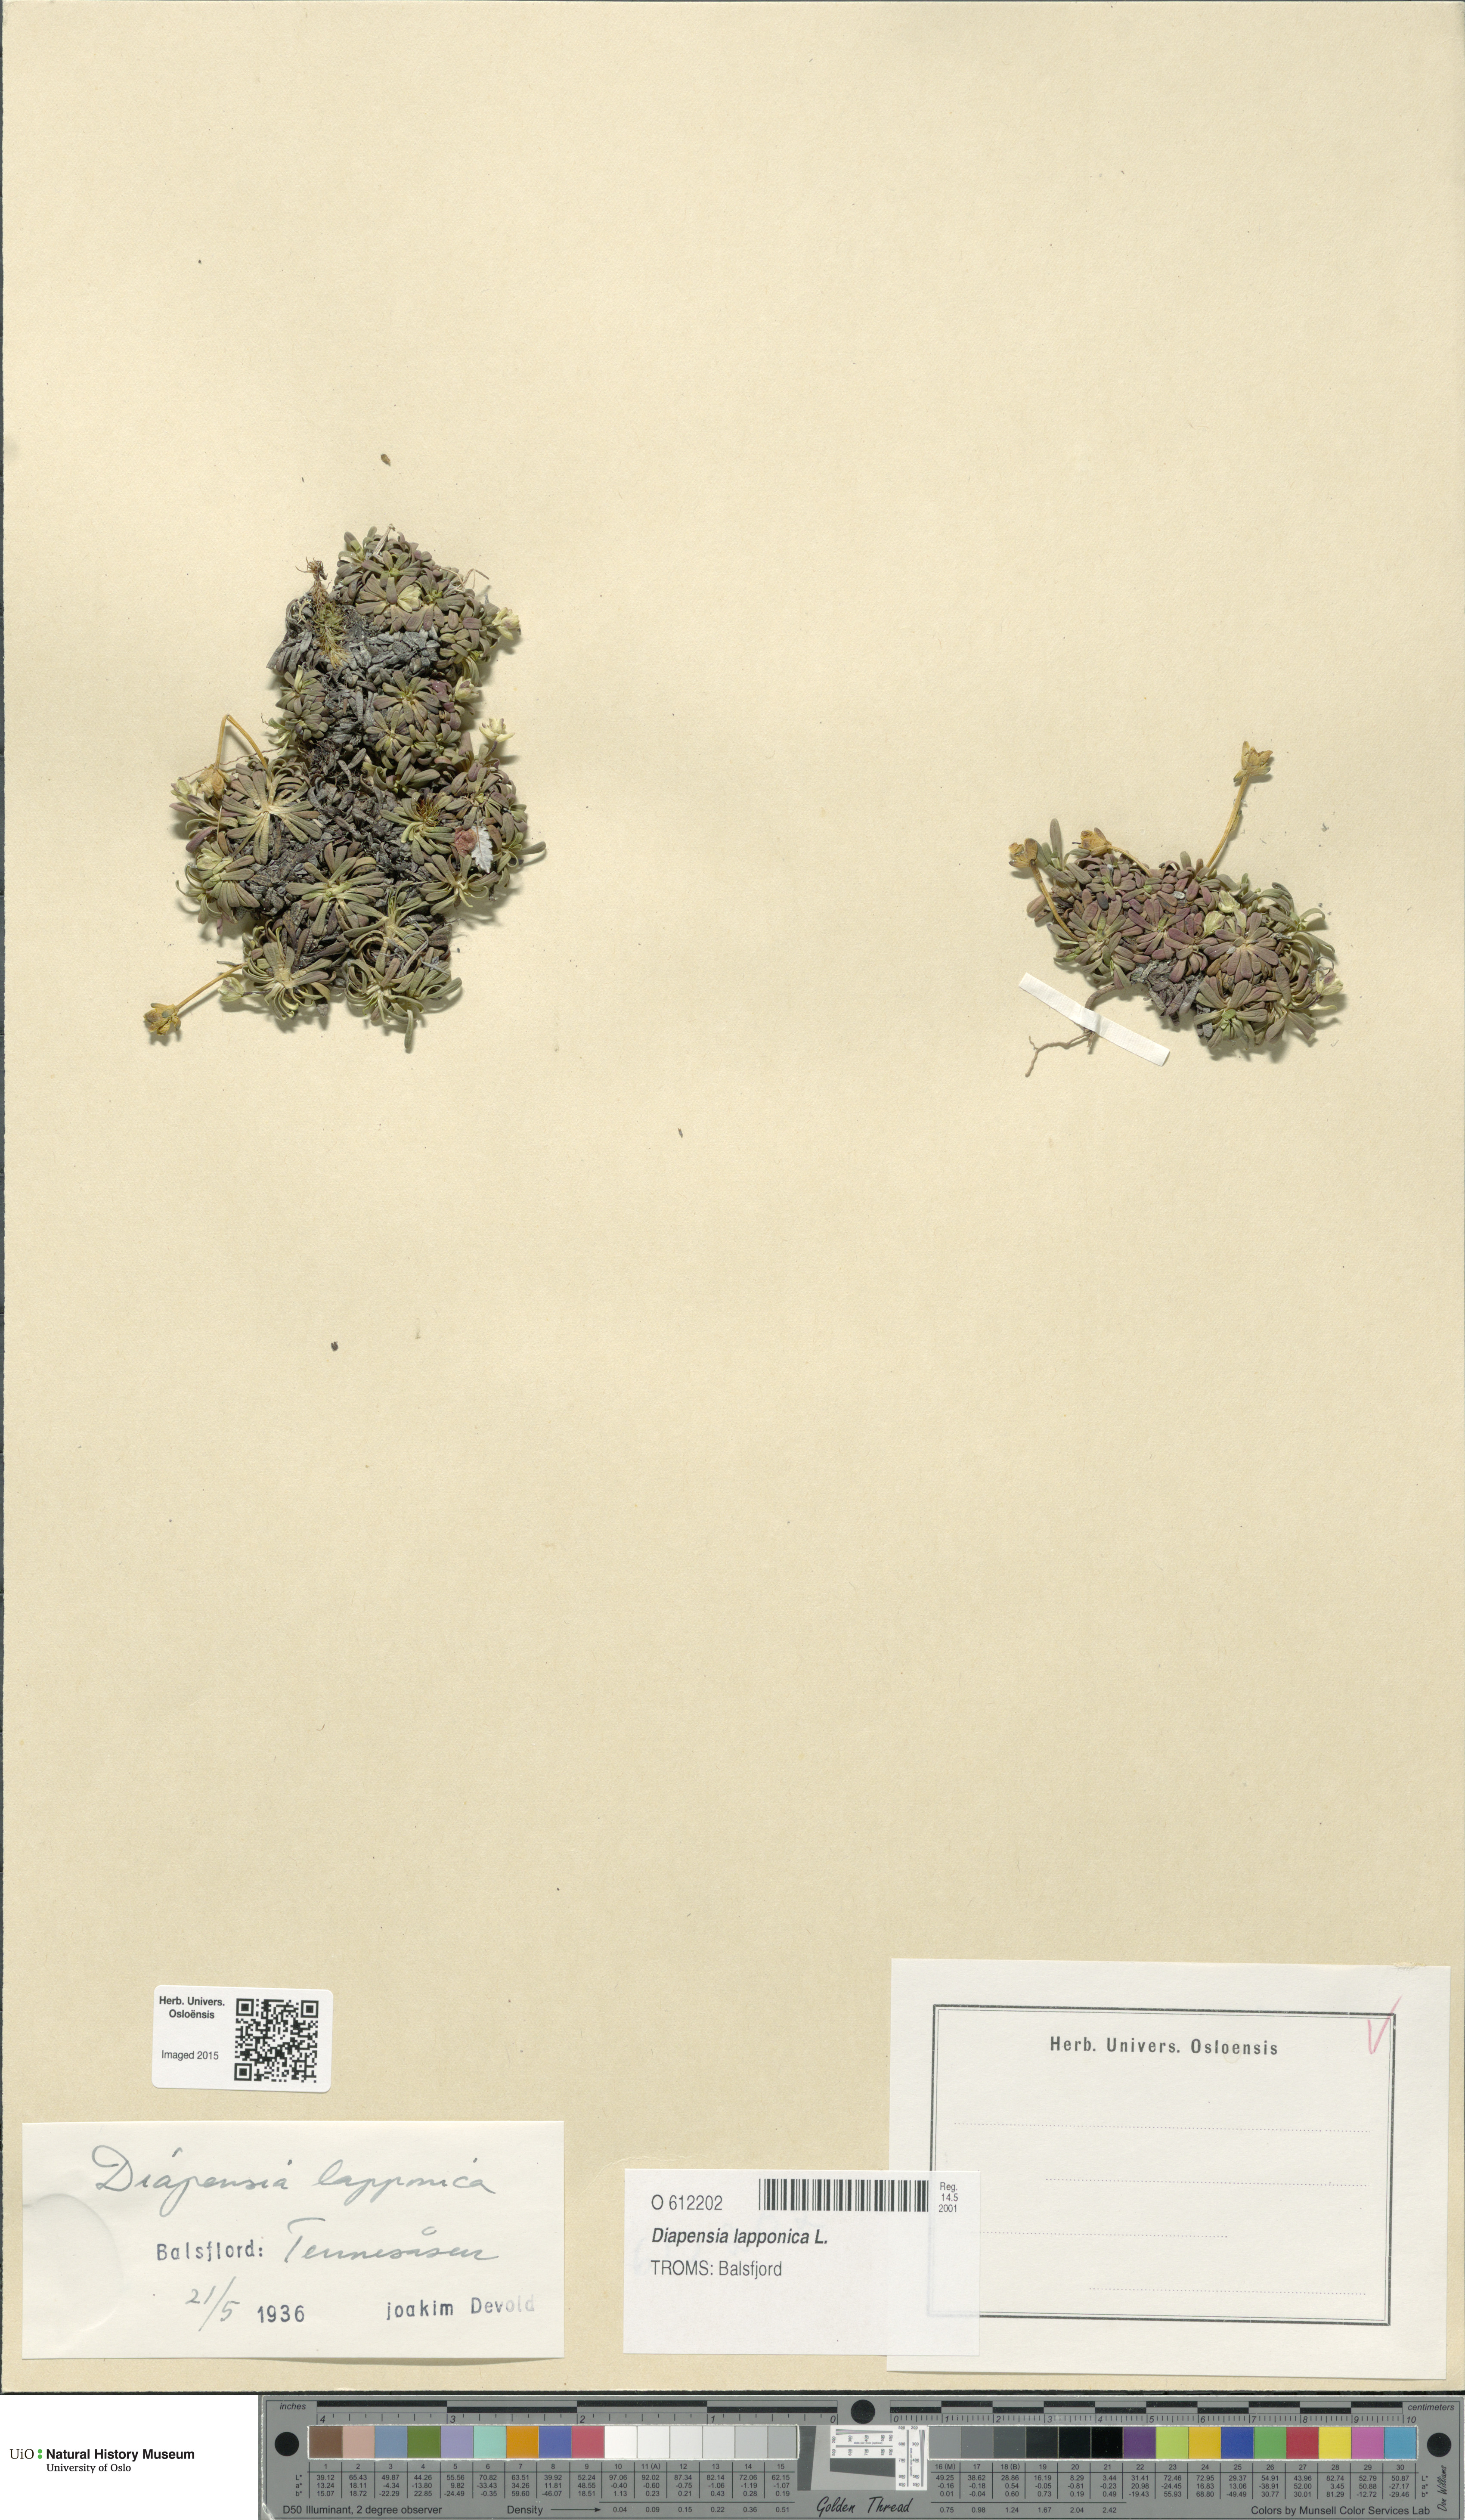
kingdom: Plantae
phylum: Tracheophyta
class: Magnoliopsida
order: Ericales
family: Diapensiaceae
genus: Diapensia
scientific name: Diapensia lapponica
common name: Diapensia
